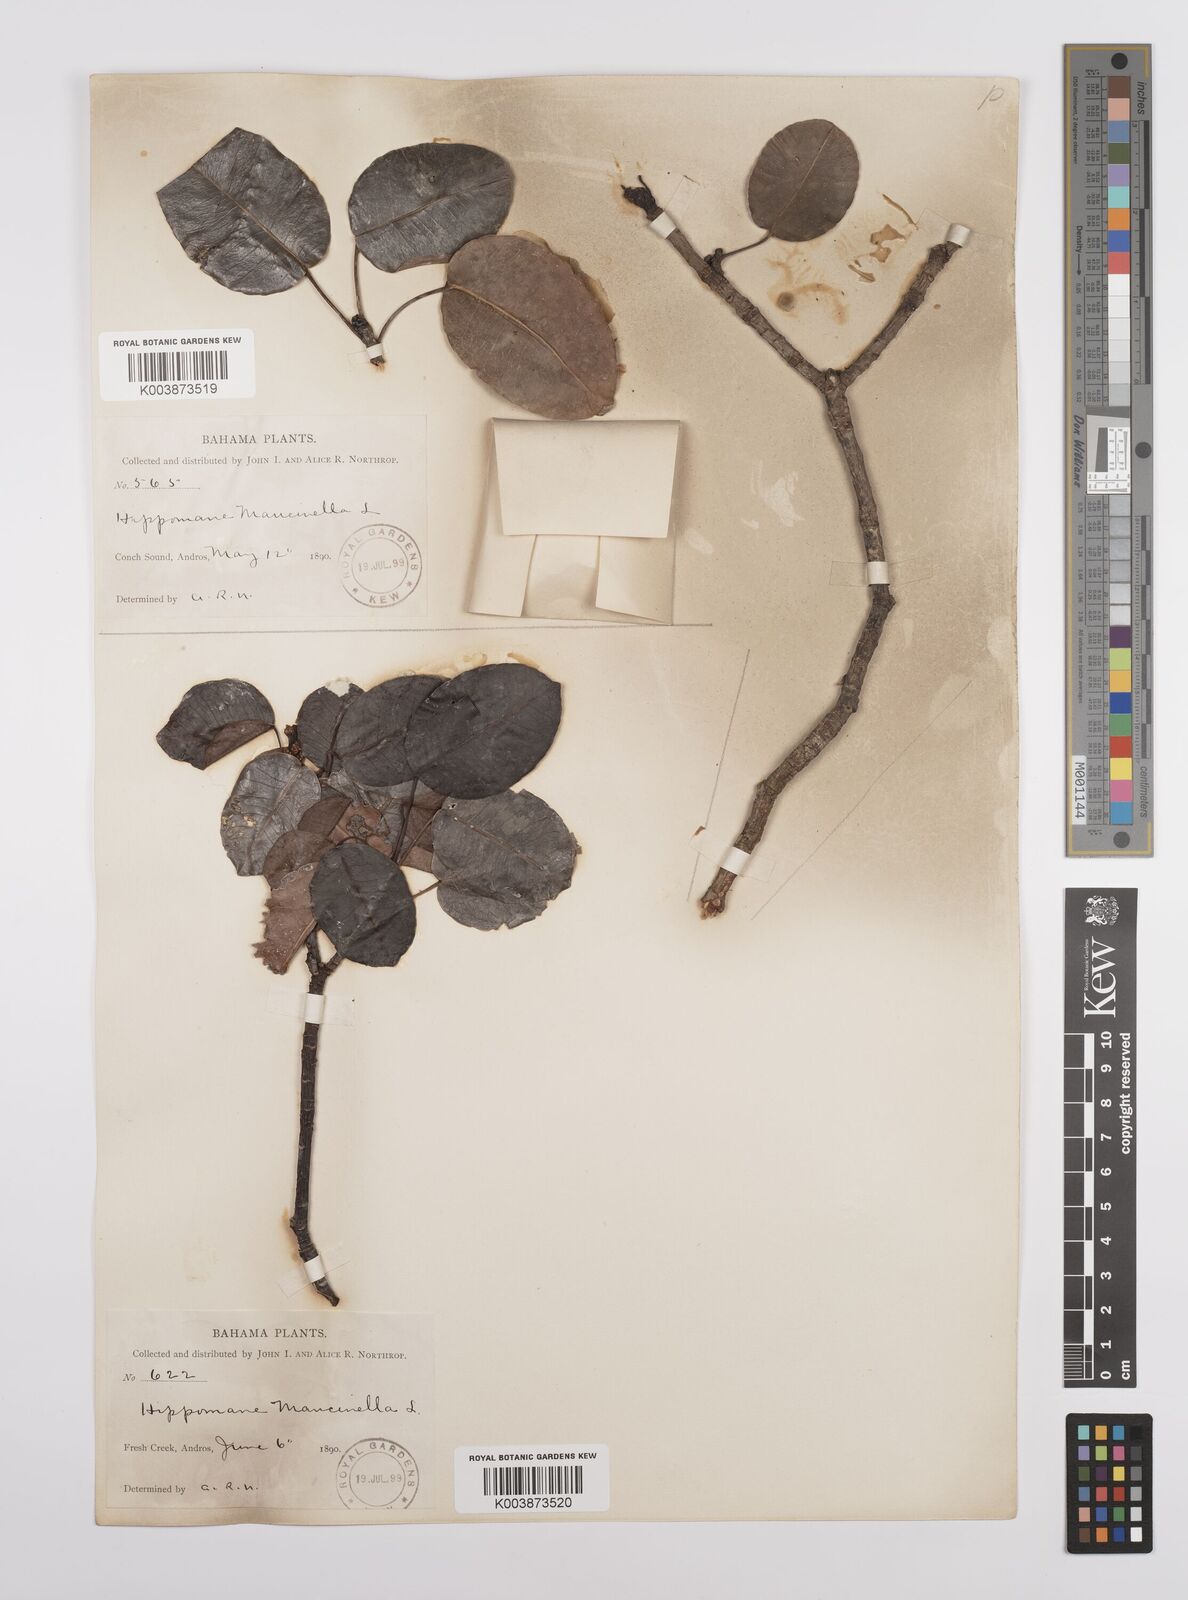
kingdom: Plantae
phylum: Tracheophyta
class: Magnoliopsida
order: Malpighiales
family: Euphorbiaceae
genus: Hippomane
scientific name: Hippomane mancinella
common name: Manchineel
